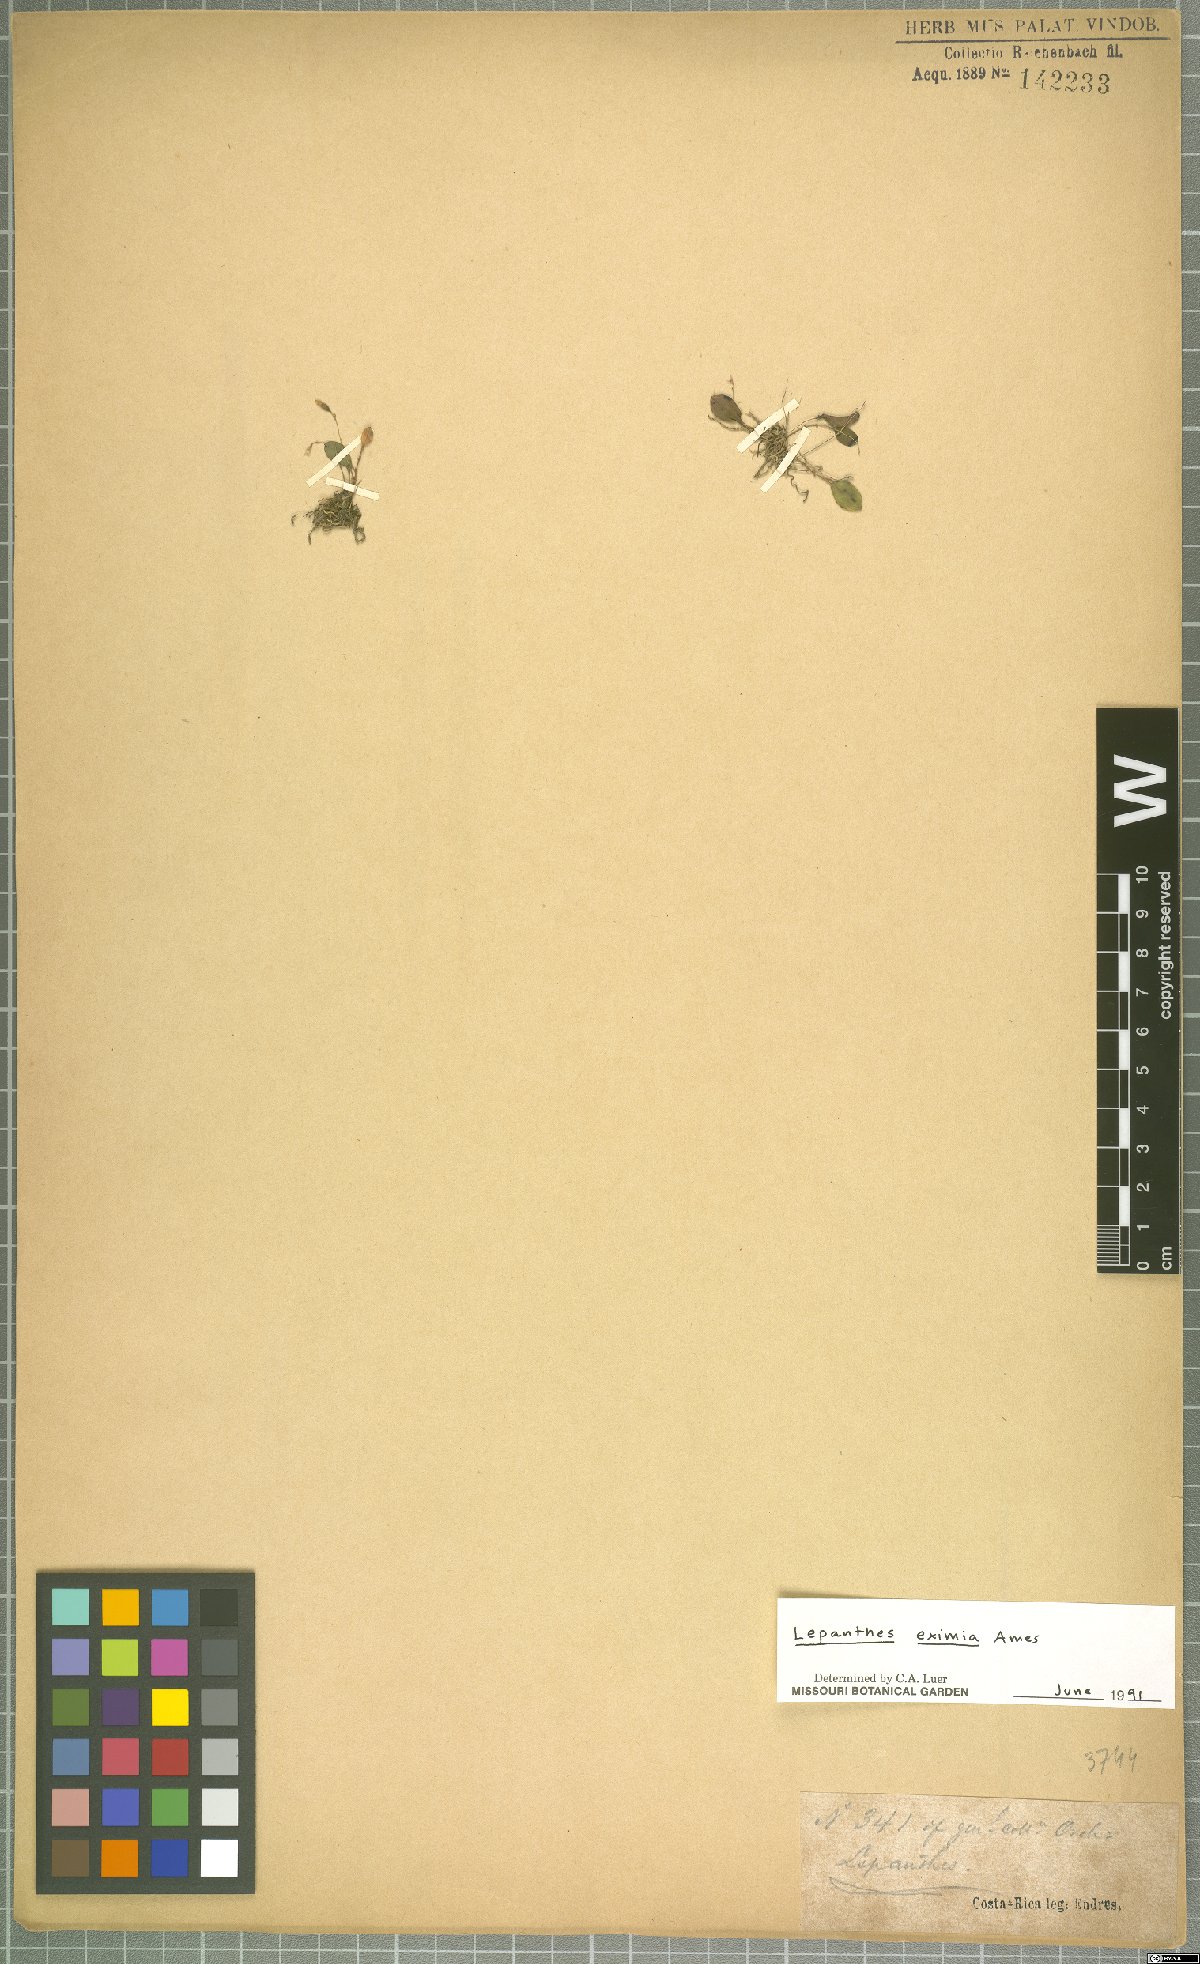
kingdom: Plantae
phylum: Tracheophyta
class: Liliopsida
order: Asparagales
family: Orchidaceae
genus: Lepanthes
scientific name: Lepanthes eximia
